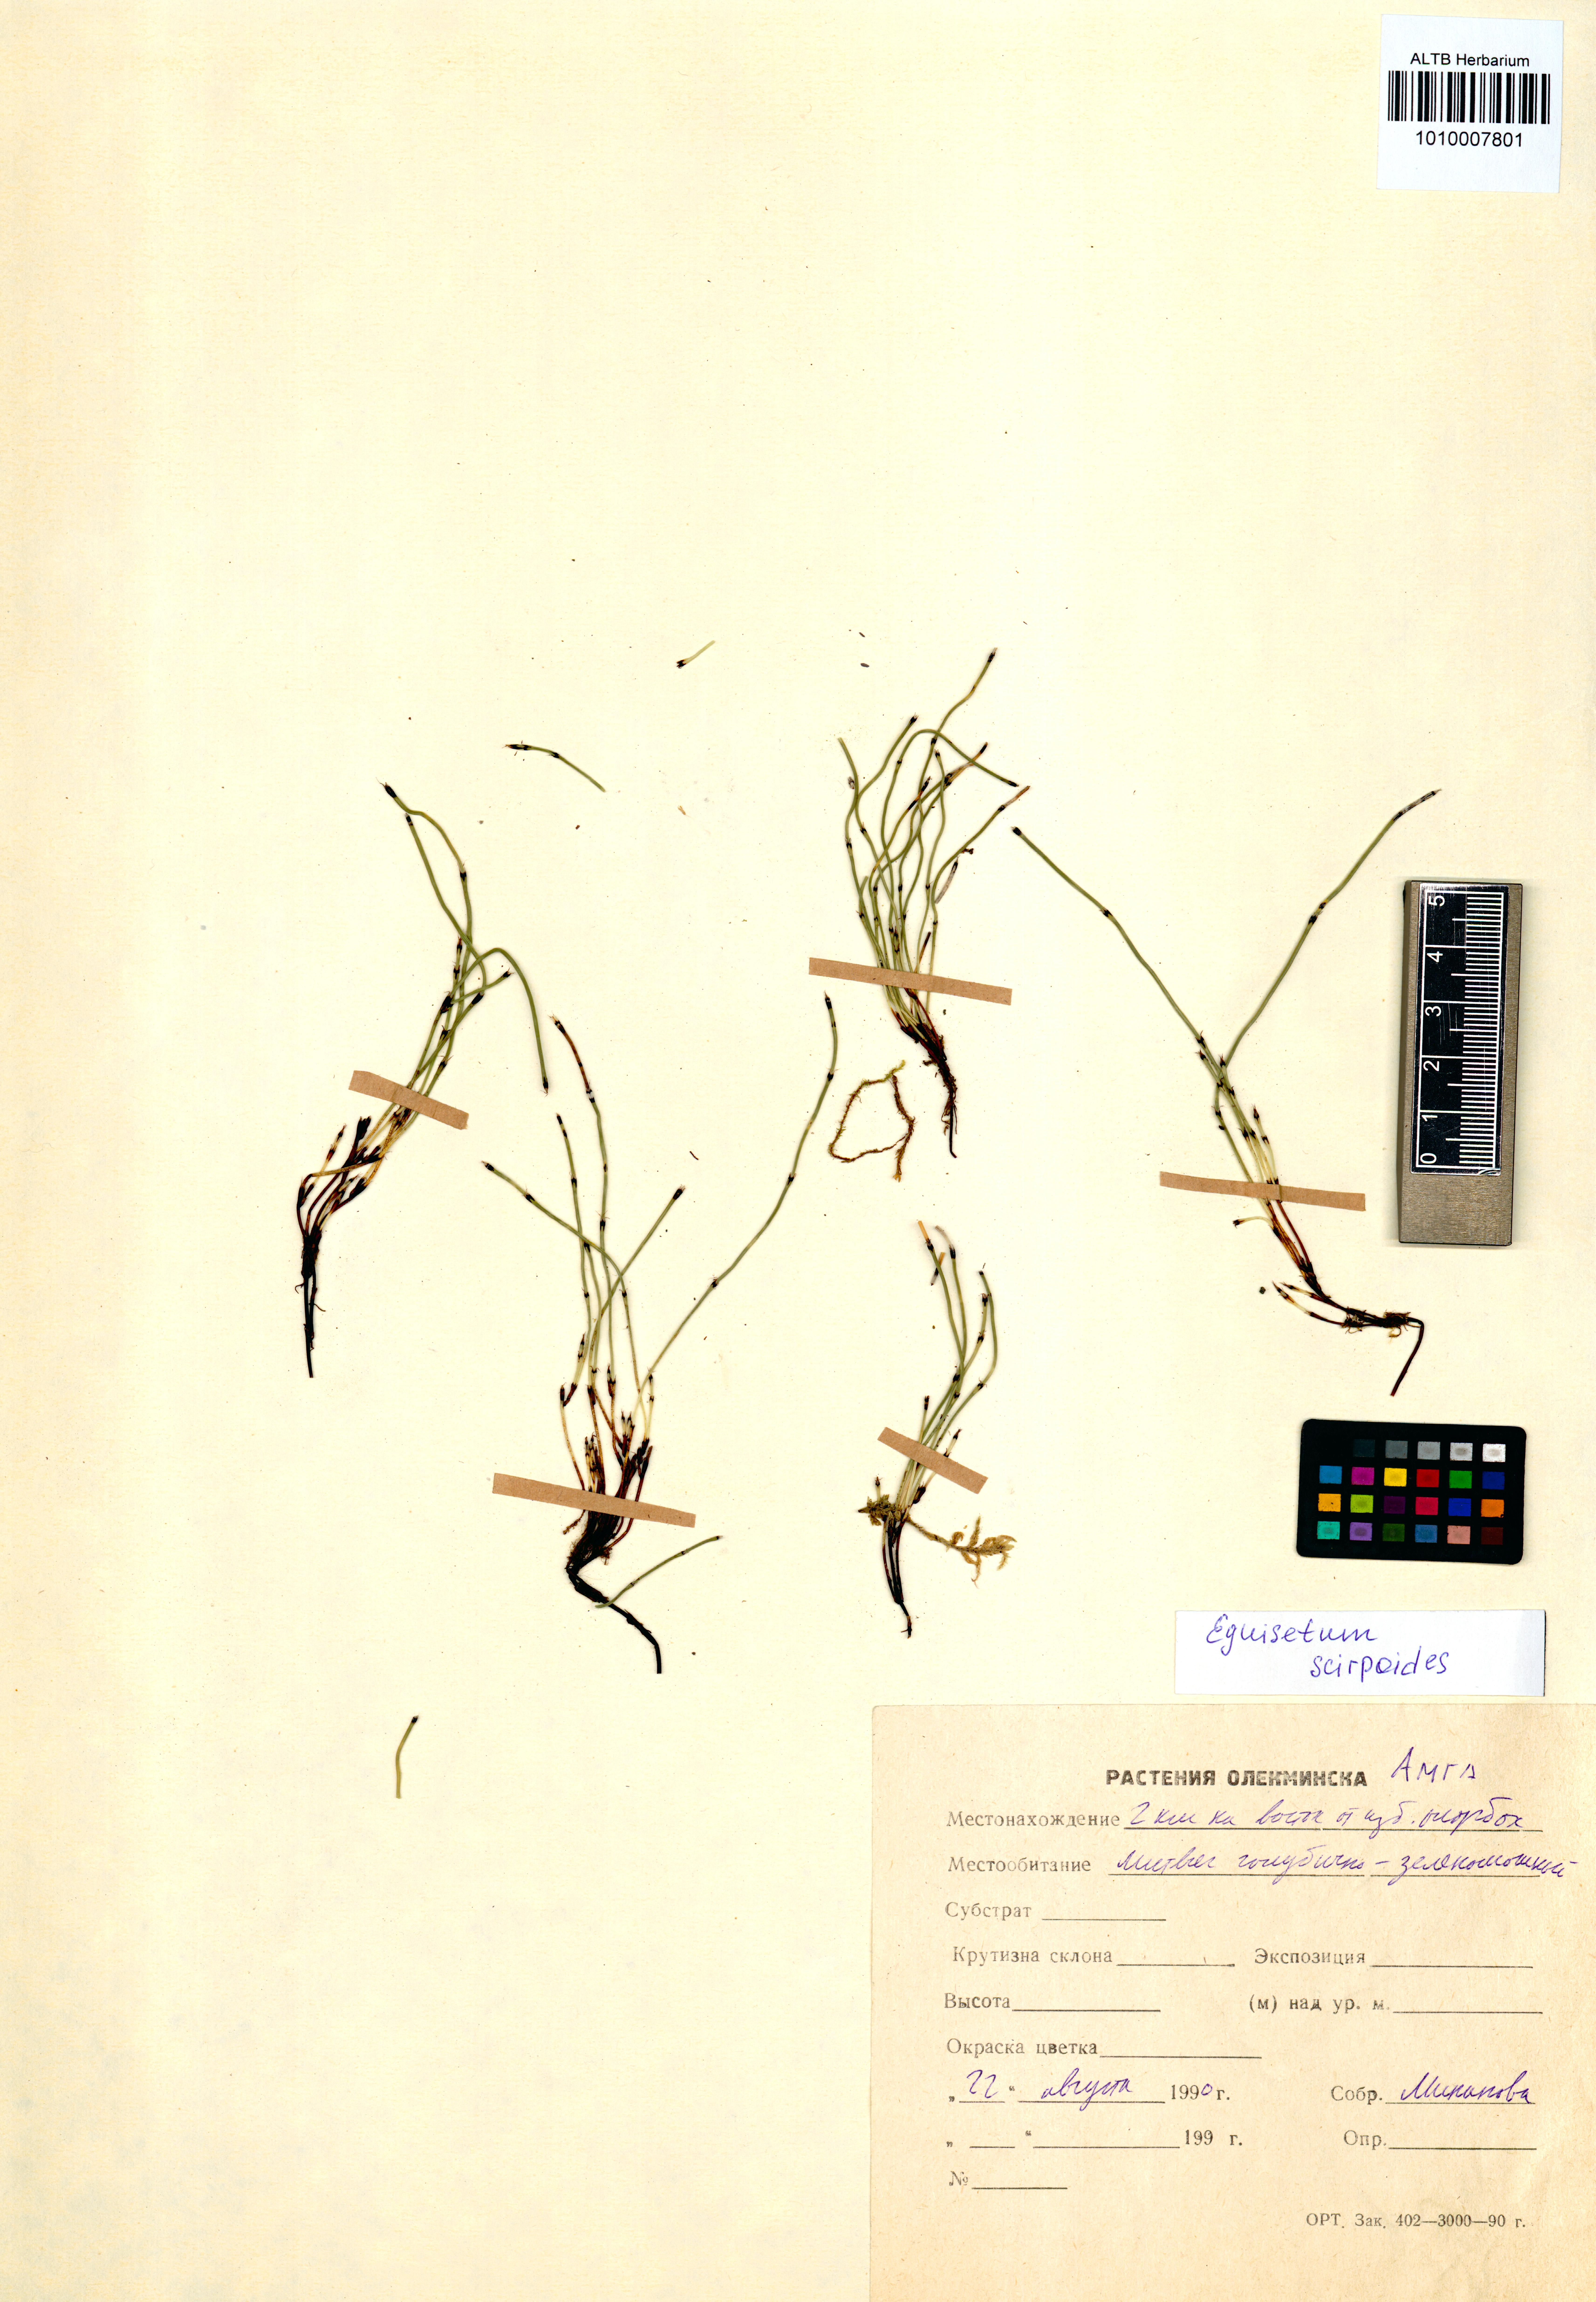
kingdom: Plantae
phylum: Tracheophyta
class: Polypodiopsida
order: Equisetales
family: Equisetaceae
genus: Equisetum
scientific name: Equisetum scirpoides
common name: Delicate horsetail
